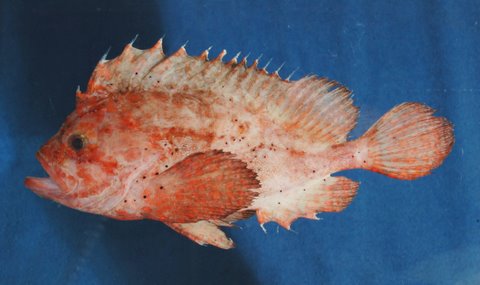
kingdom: Animalia
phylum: Chordata
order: Scorpaeniformes
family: Tetrarogidae
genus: Snyderina
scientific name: Snyderina
